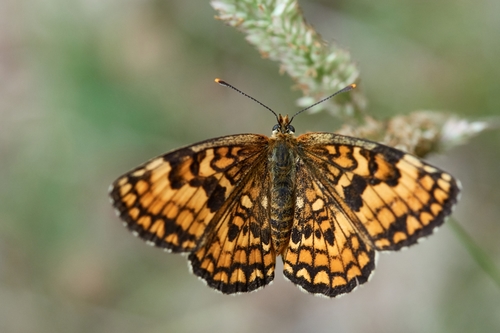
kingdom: Animalia
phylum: Arthropoda
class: Insecta
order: Lepidoptera
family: Nymphalidae
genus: Mellicta
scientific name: Mellicta athalia
